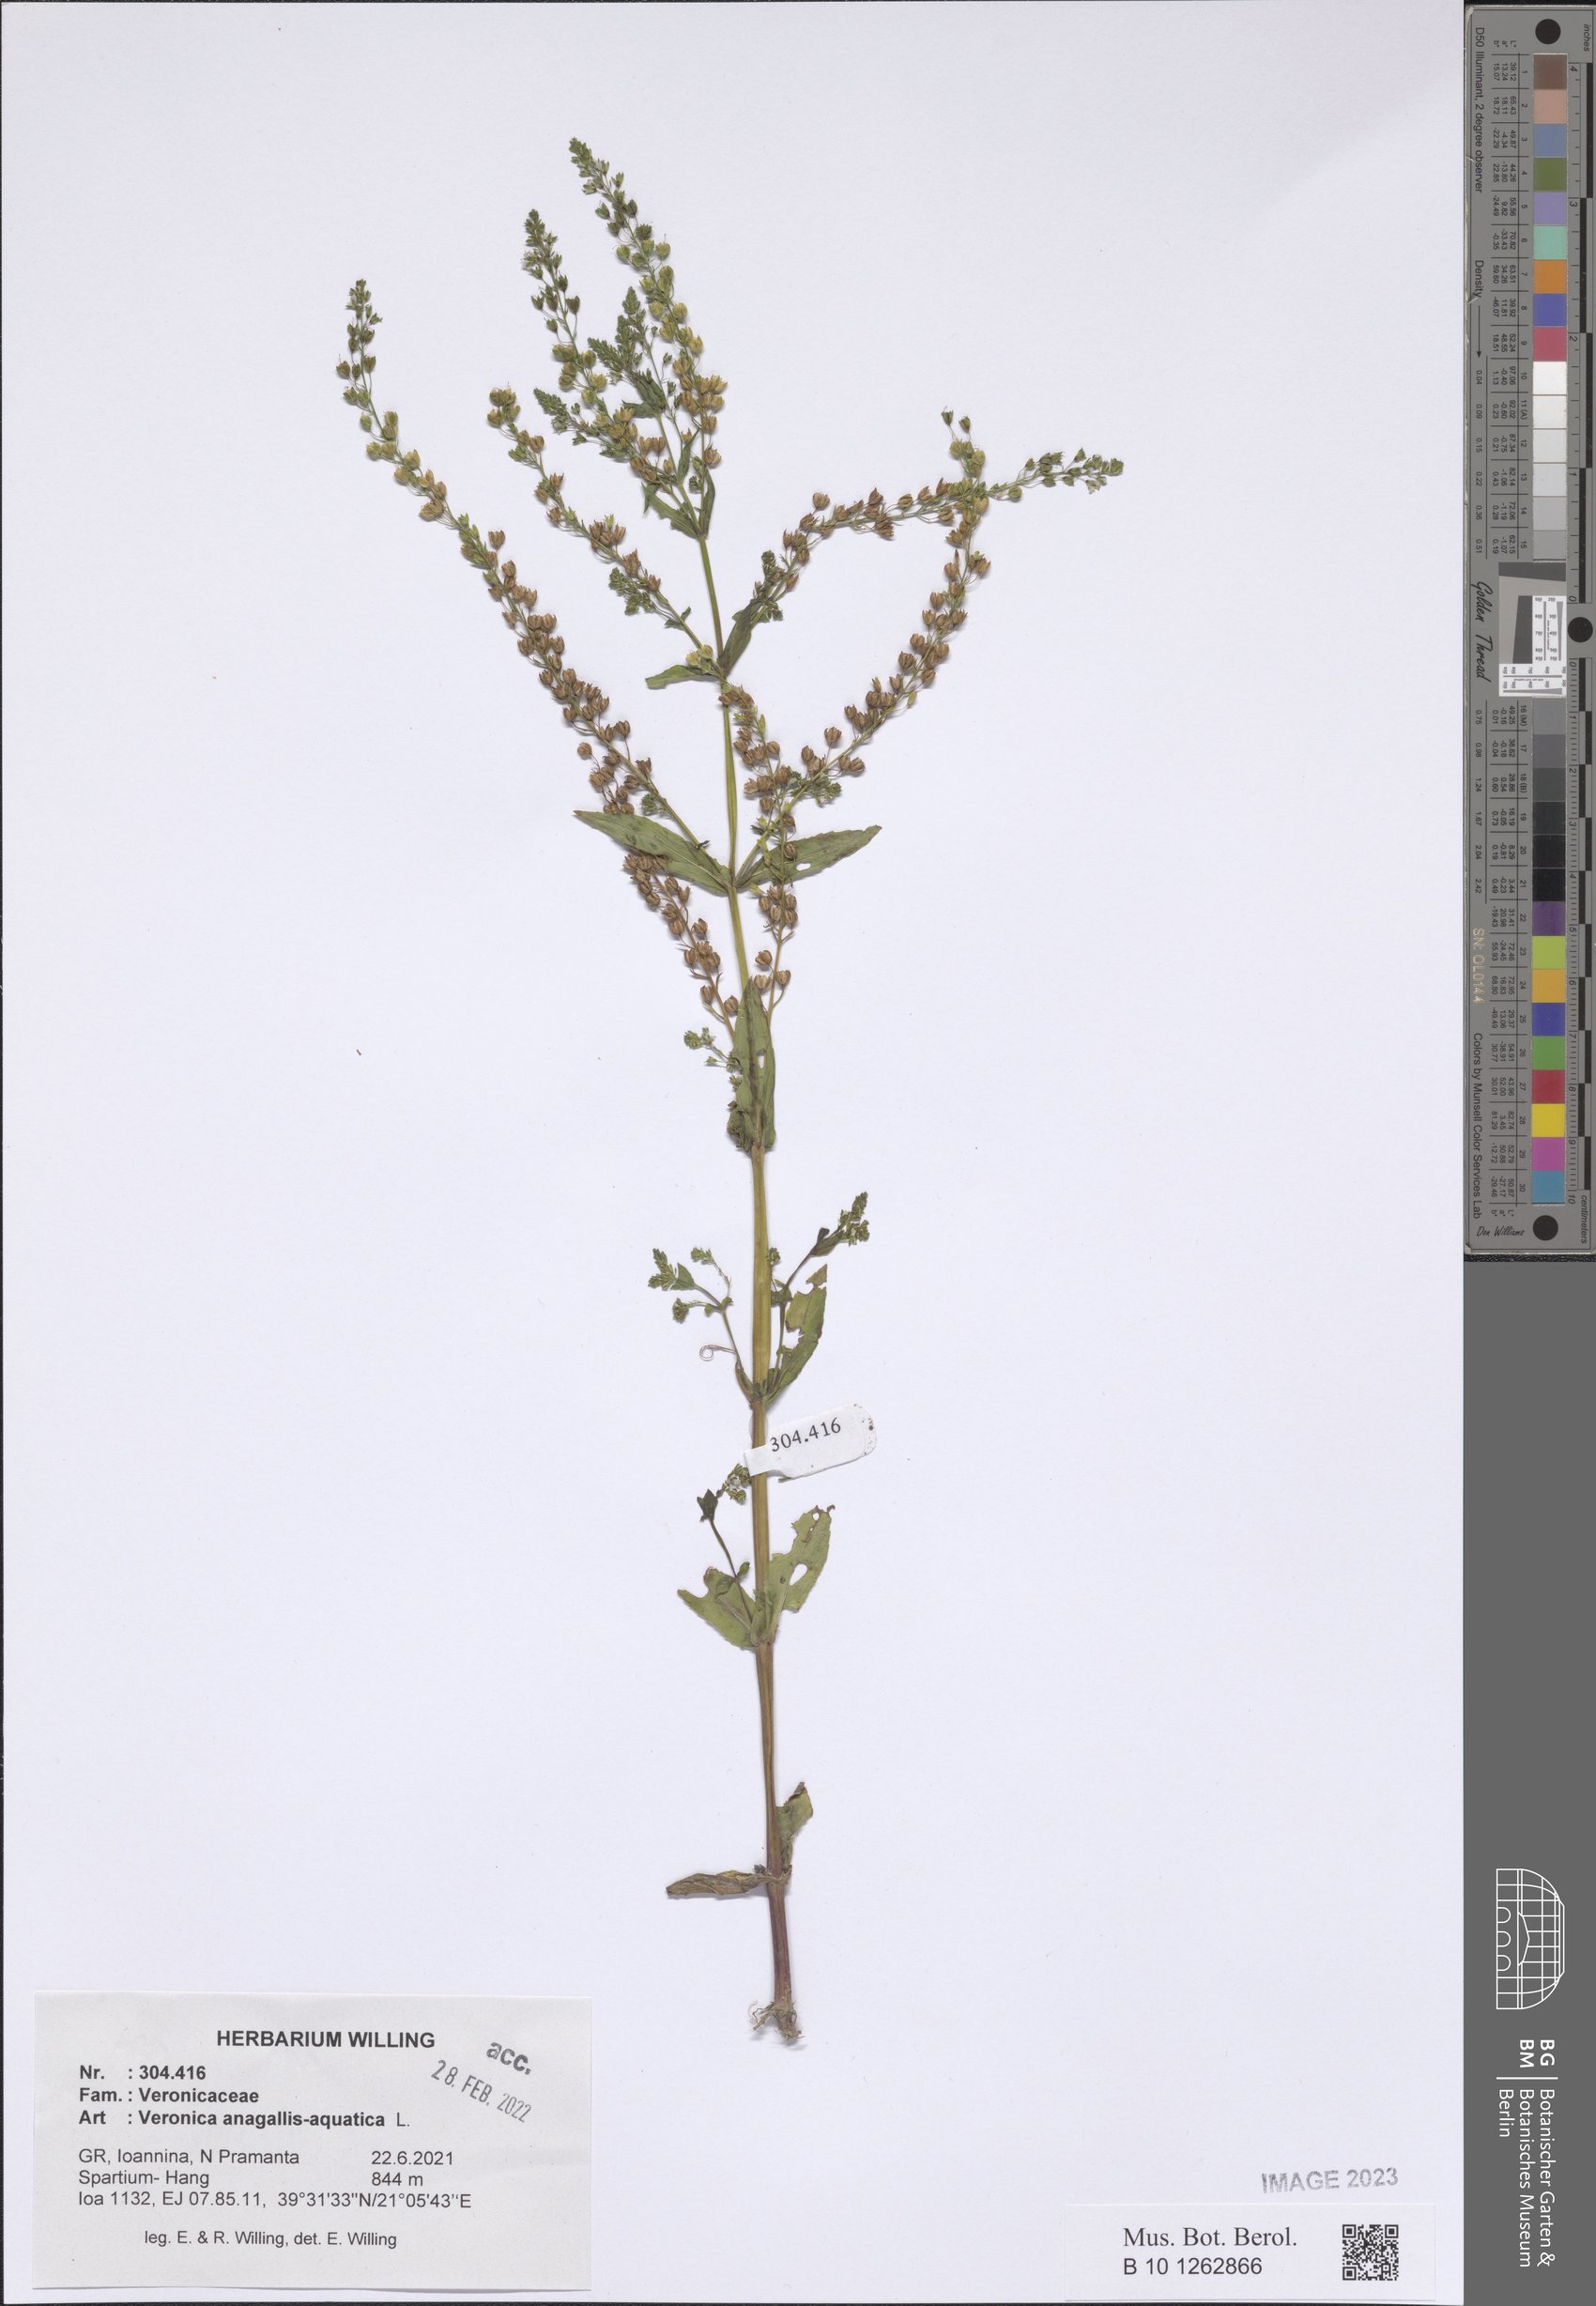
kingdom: Plantae
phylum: Tracheophyta
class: Magnoliopsida
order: Lamiales
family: Plantaginaceae
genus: Veronica
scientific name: Veronica anagallis-aquatica
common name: Water speedwell
